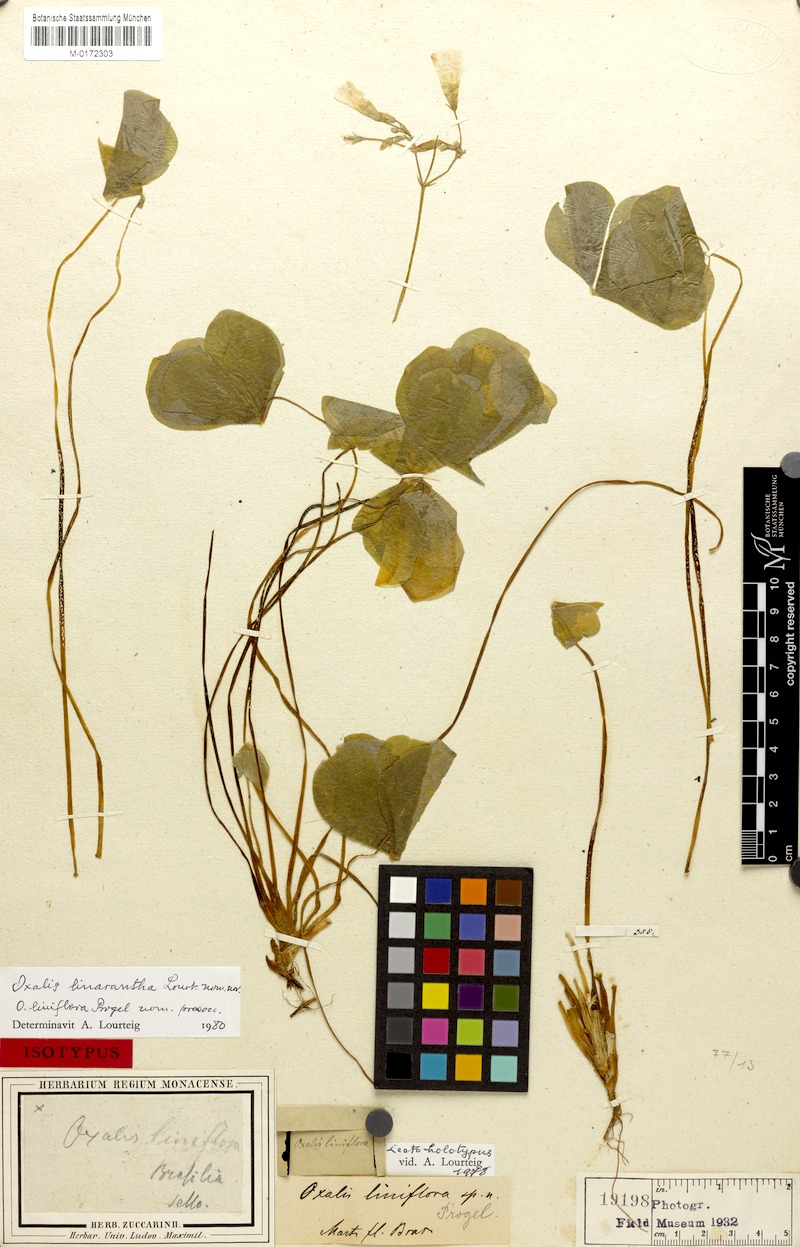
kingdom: Plantae
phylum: Tracheophyta
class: Magnoliopsida
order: Oxalidales
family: Oxalidaceae
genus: Oxalis
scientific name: Oxalis linarantha
